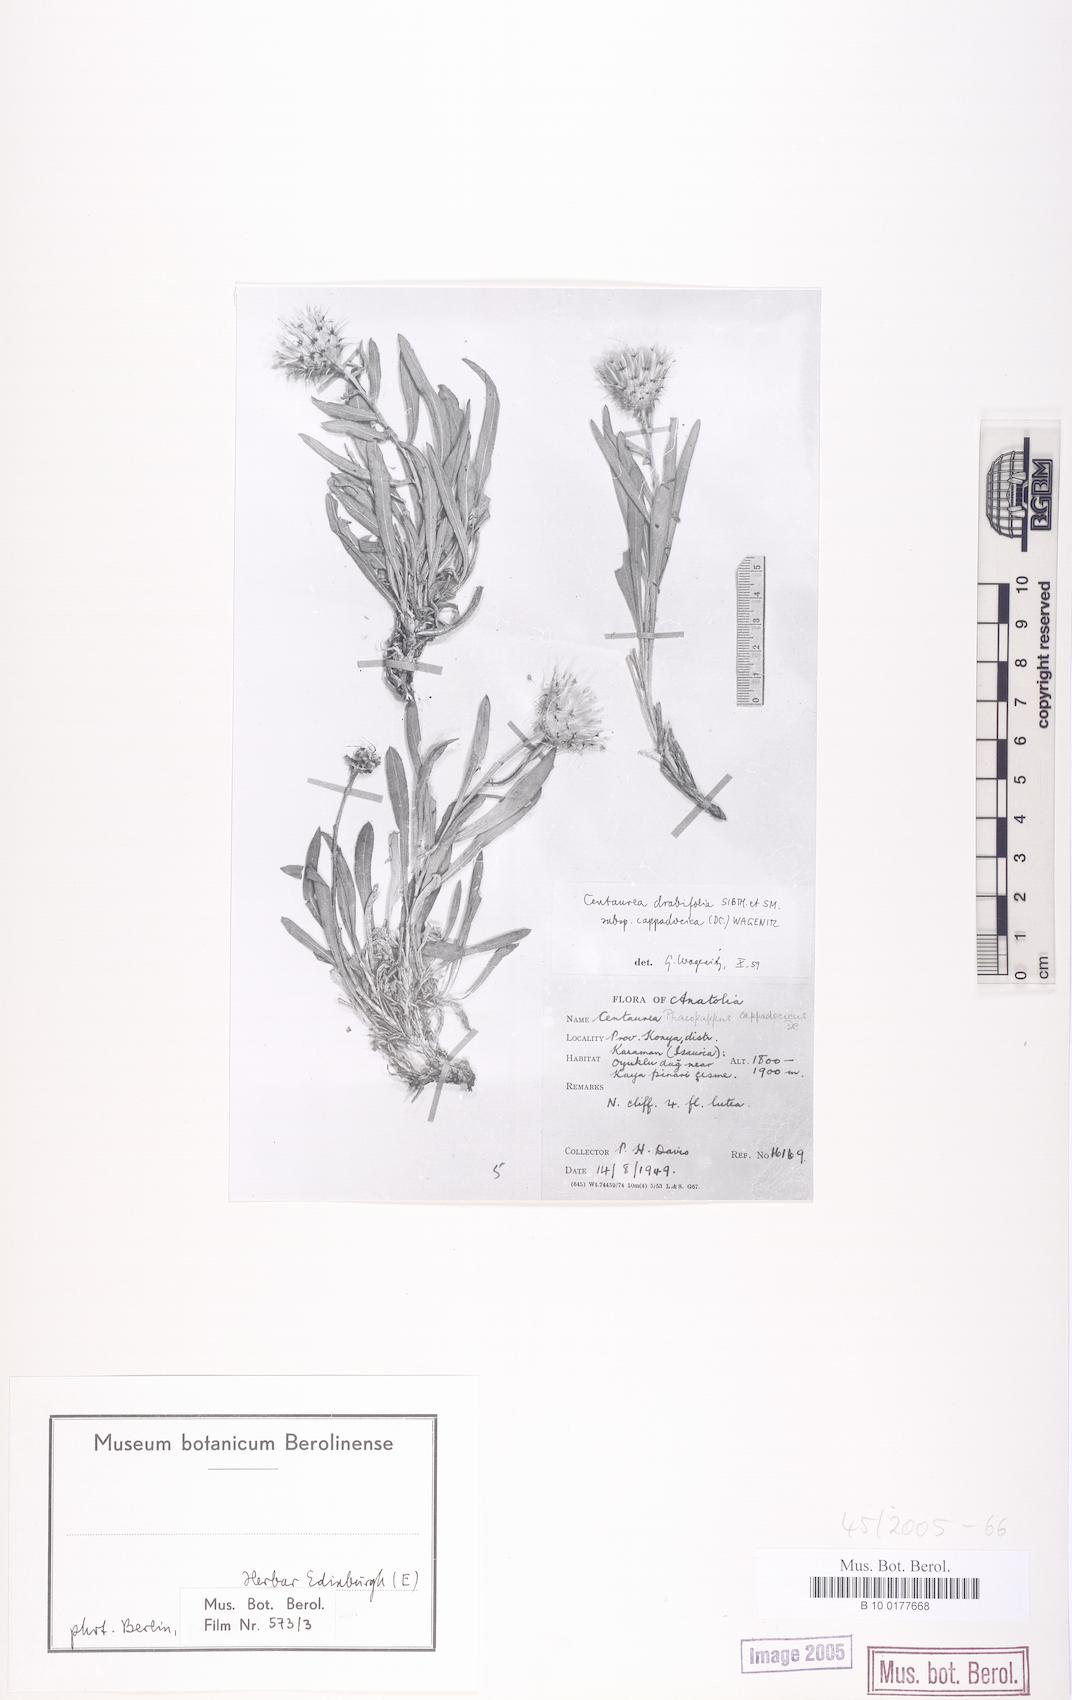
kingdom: Plantae
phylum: Tracheophyta
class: Magnoliopsida
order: Asterales
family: Asteraceae
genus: Centaurea
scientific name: Centaurea drabifolia
